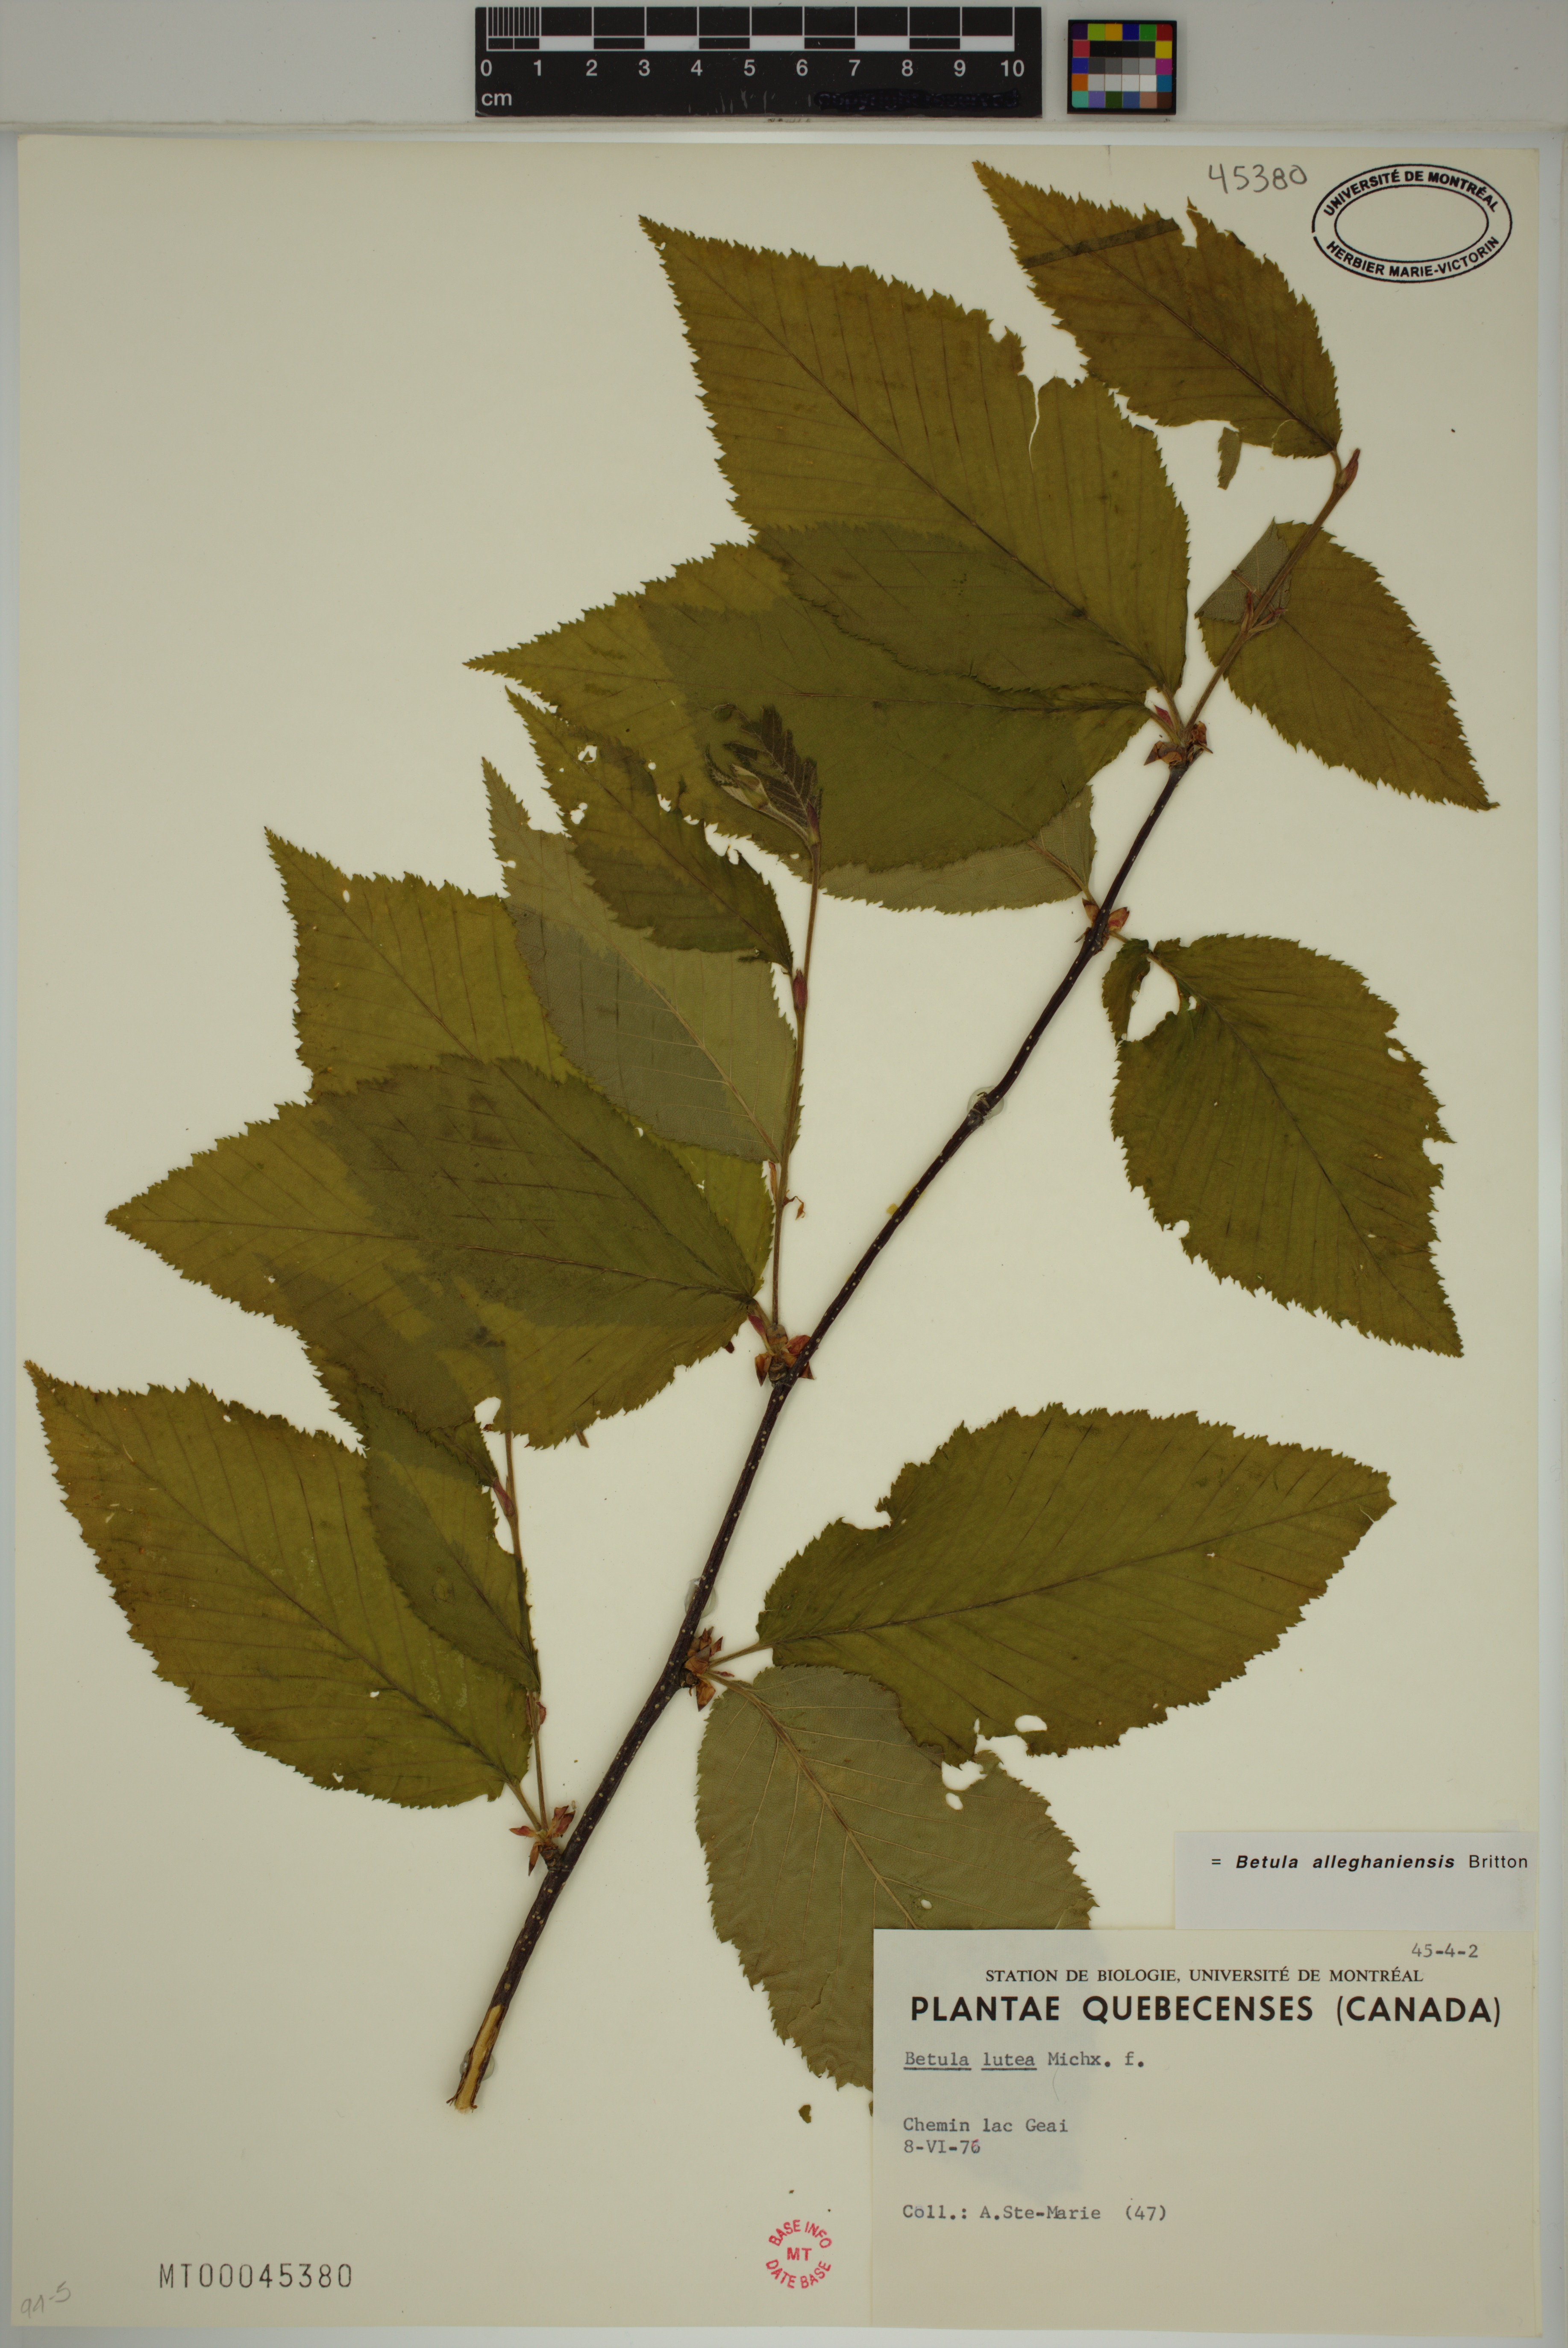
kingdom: Plantae
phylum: Tracheophyta
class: Magnoliopsida
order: Fagales
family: Betulaceae
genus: Betula
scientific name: Betula alleghaniensis
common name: Yellow birch
